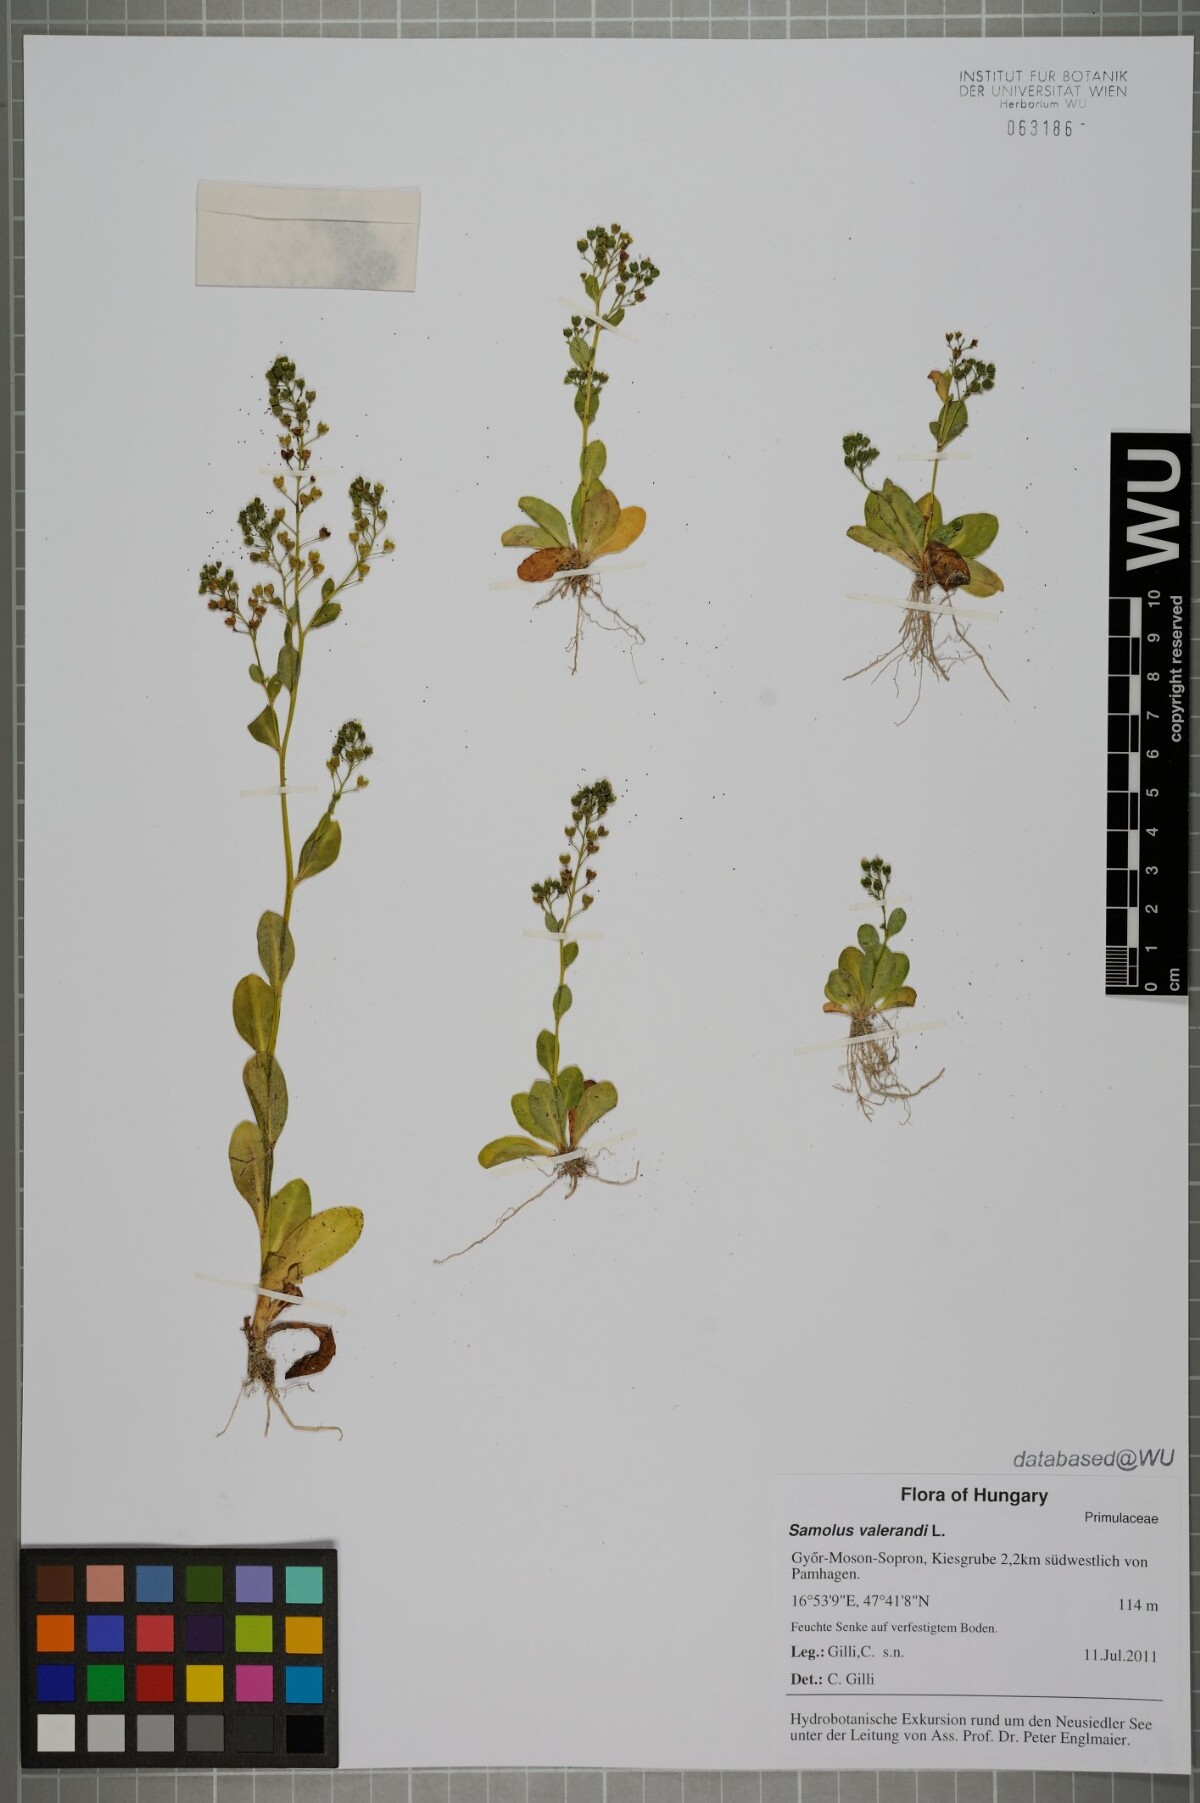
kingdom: Plantae
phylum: Tracheophyta
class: Magnoliopsida
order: Ericales
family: Primulaceae
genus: Samolus
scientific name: Samolus valerandi
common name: Brookweed
